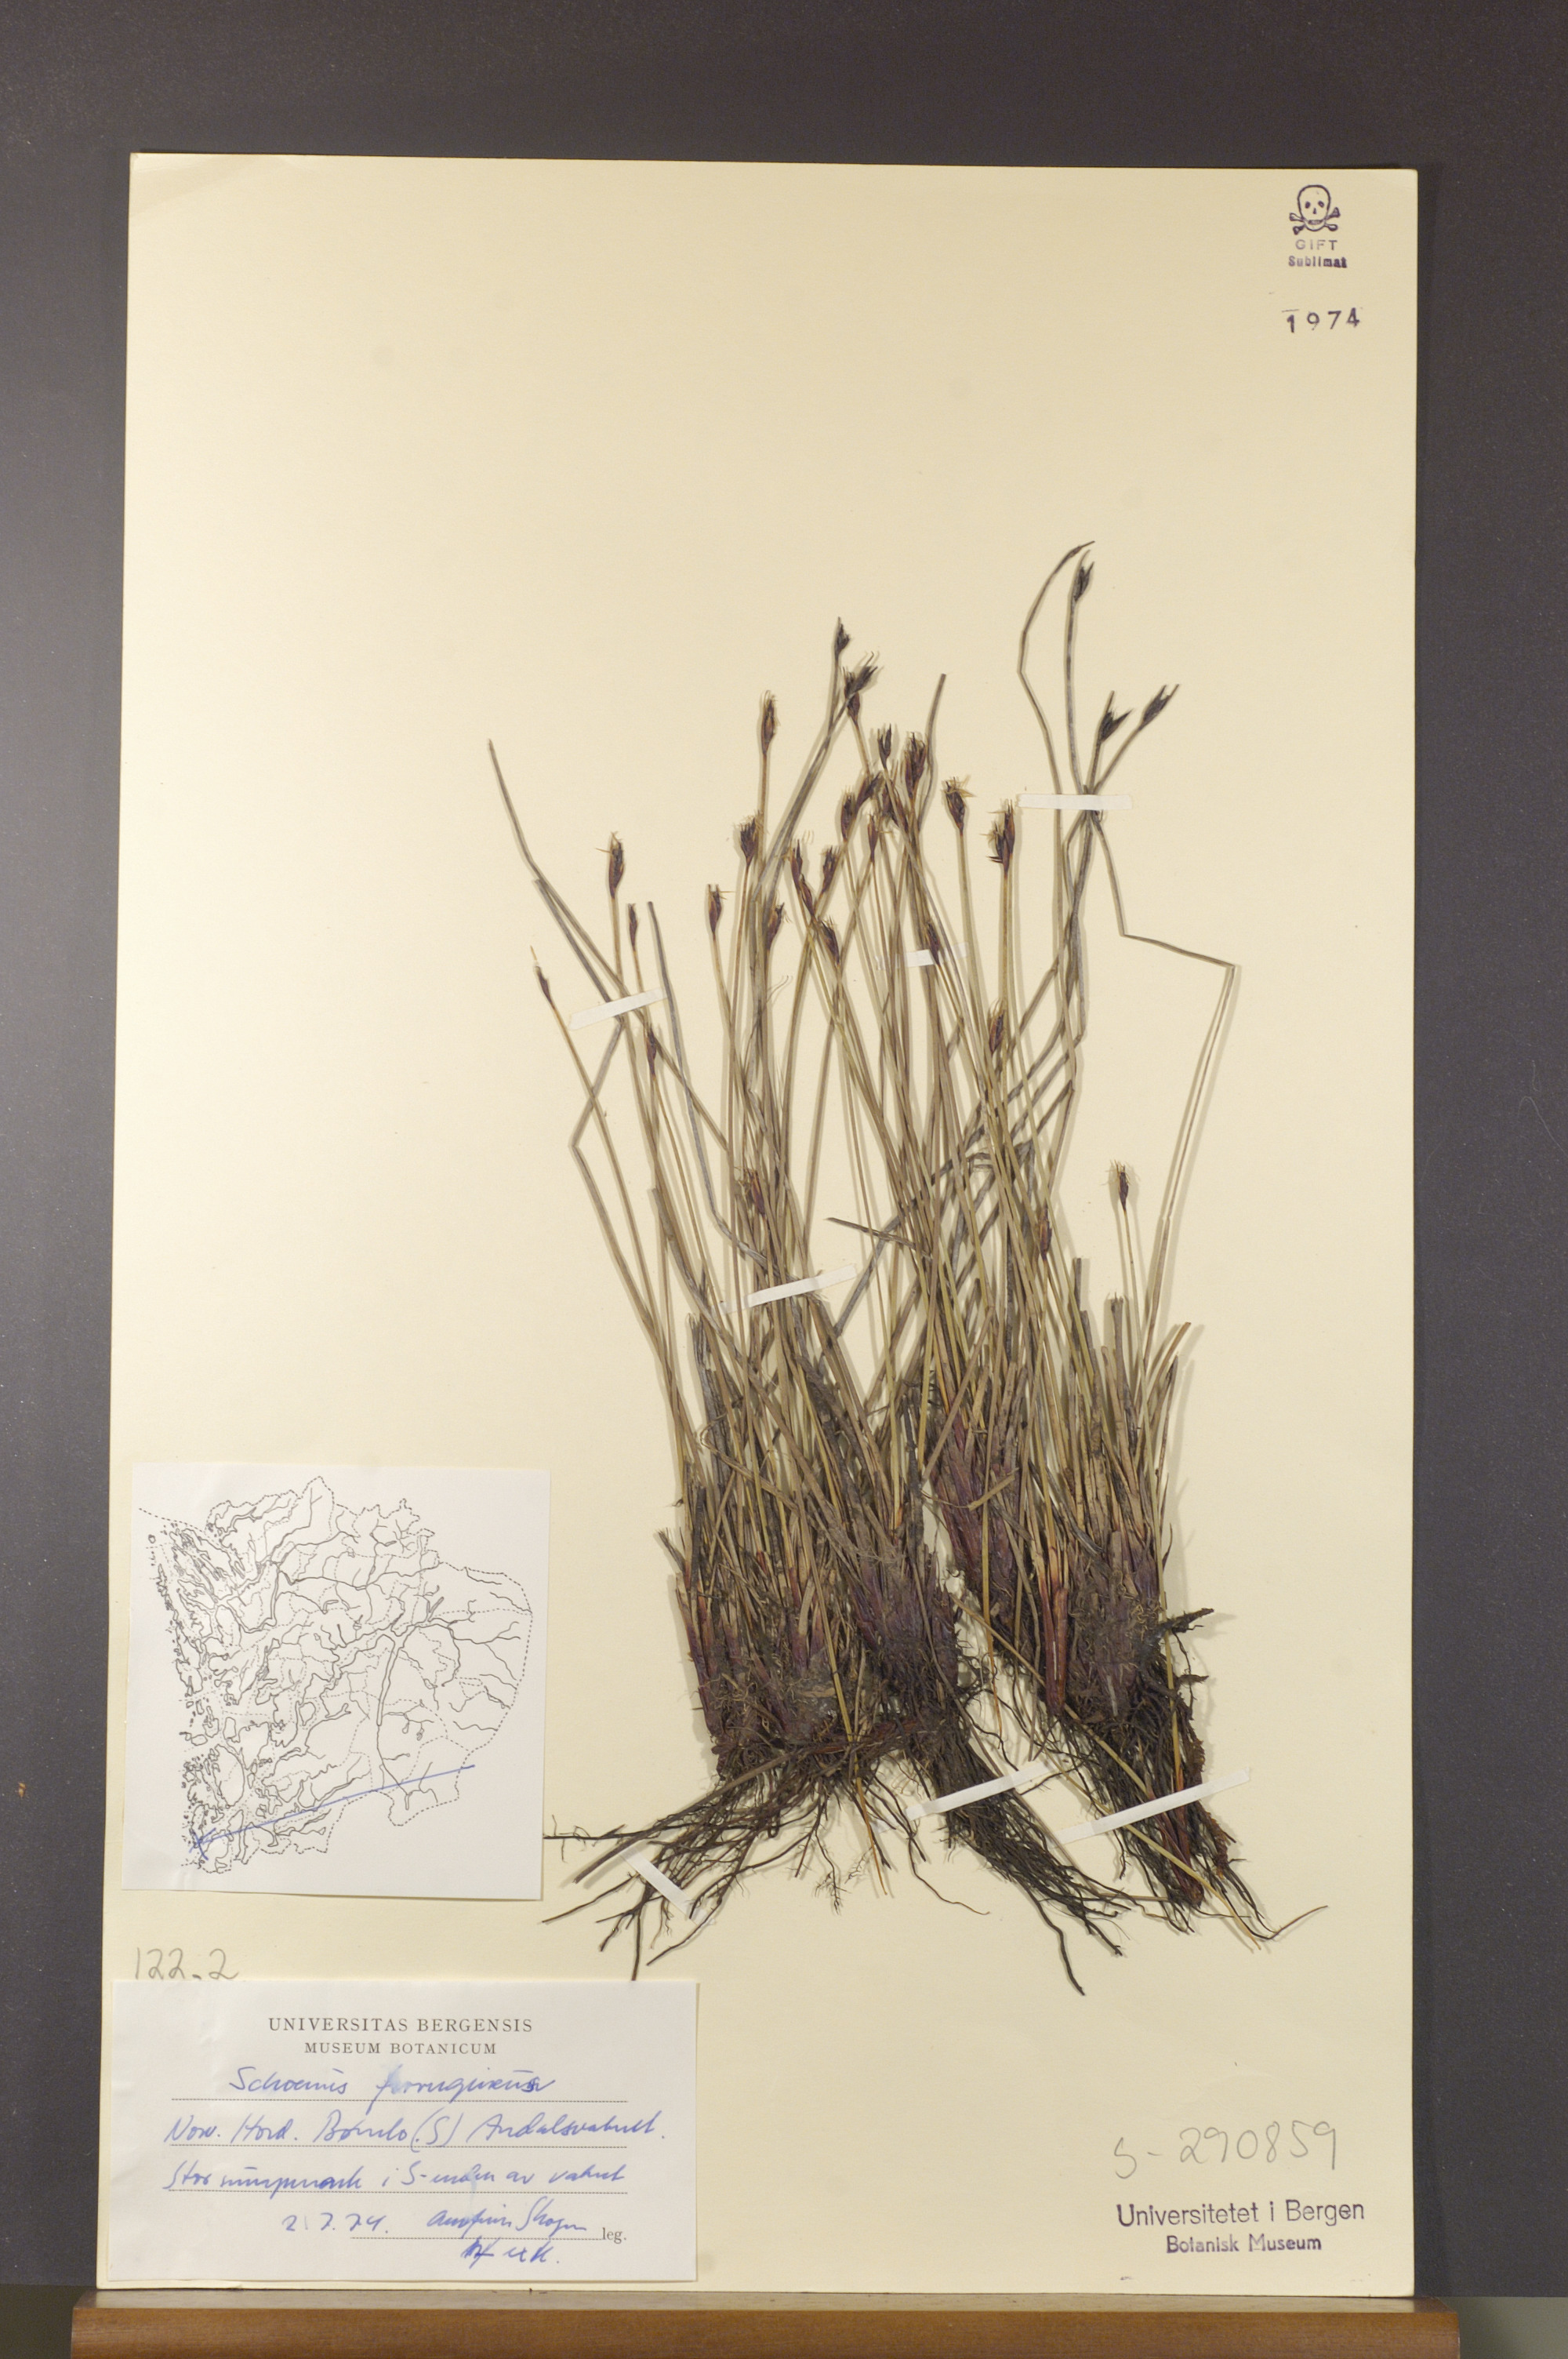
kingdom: Plantae
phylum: Tracheophyta
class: Liliopsida
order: Poales
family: Cyperaceae
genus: Schoenus
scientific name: Schoenus ferrugineus
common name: Brown bog-rush
